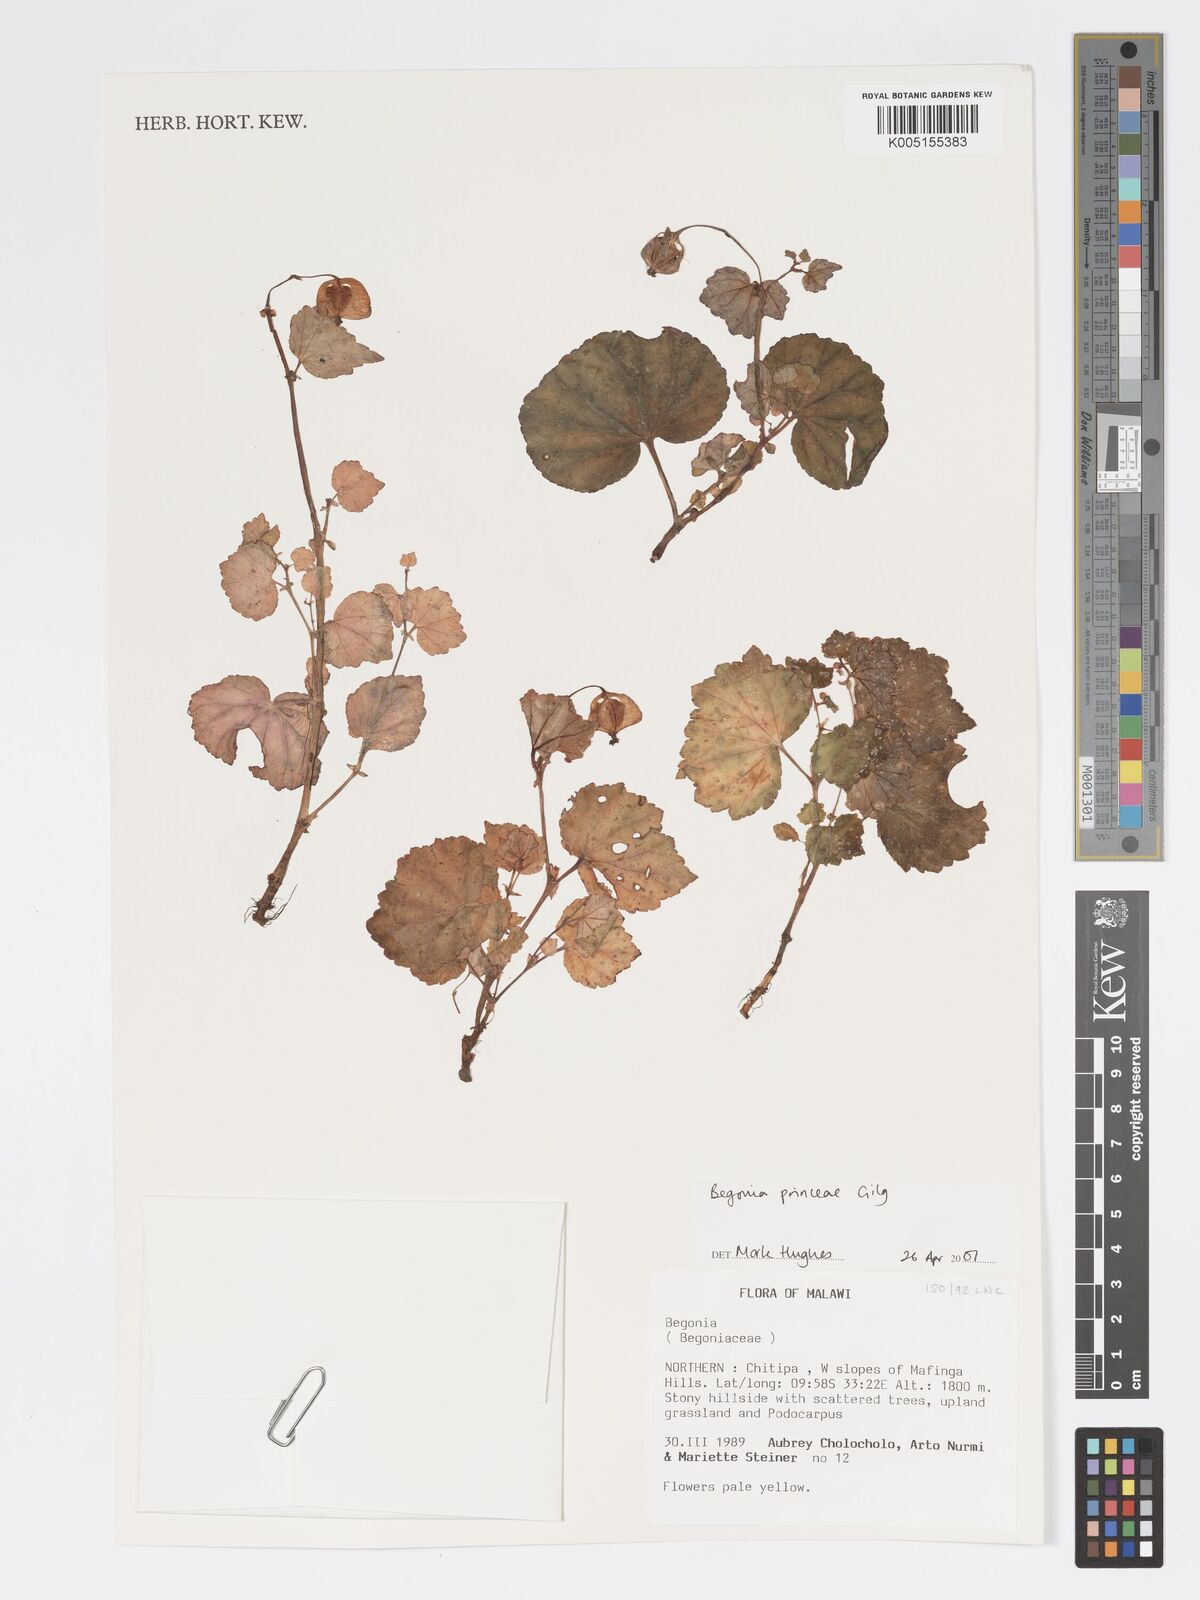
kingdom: Plantae
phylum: Tracheophyta
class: Magnoliopsida
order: Cucurbitales
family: Begoniaceae
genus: Begonia
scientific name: Begonia princeae
